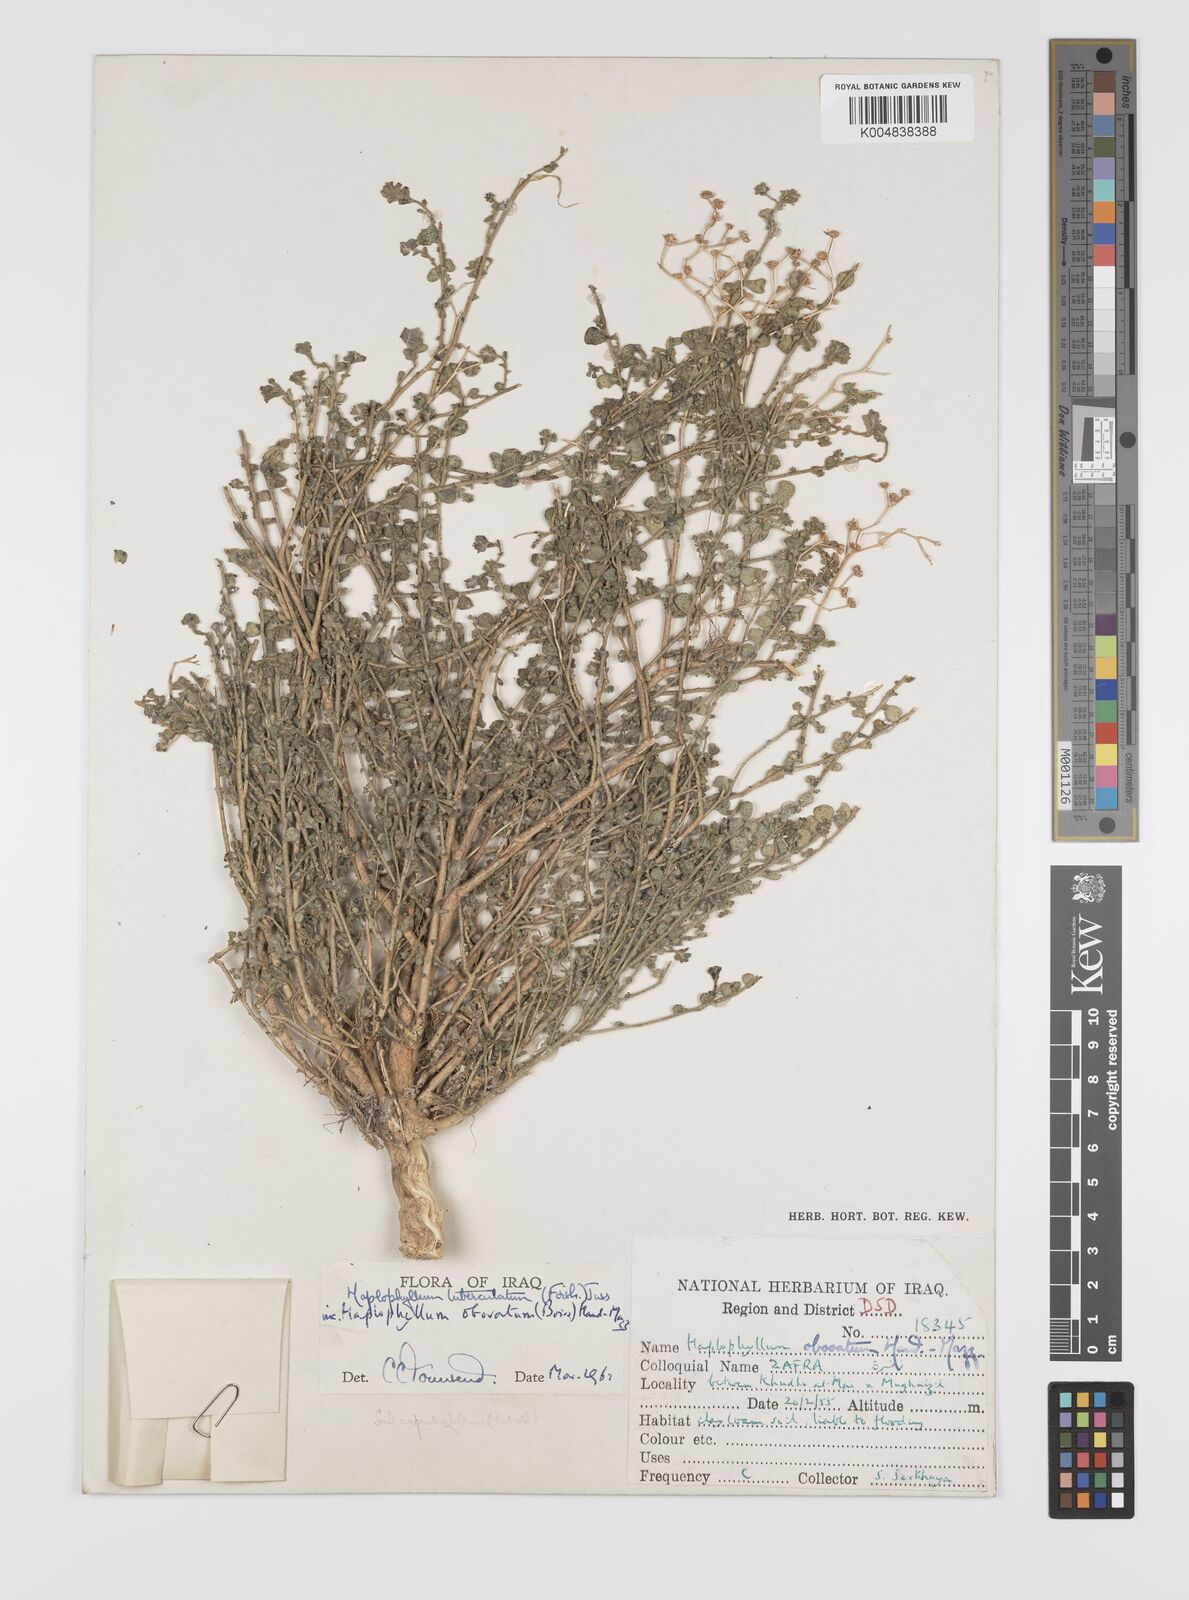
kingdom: Plantae
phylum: Tracheophyta
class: Magnoliopsida
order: Sapindales
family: Rutaceae
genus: Haplophyllum
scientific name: Haplophyllum tuberculatum
